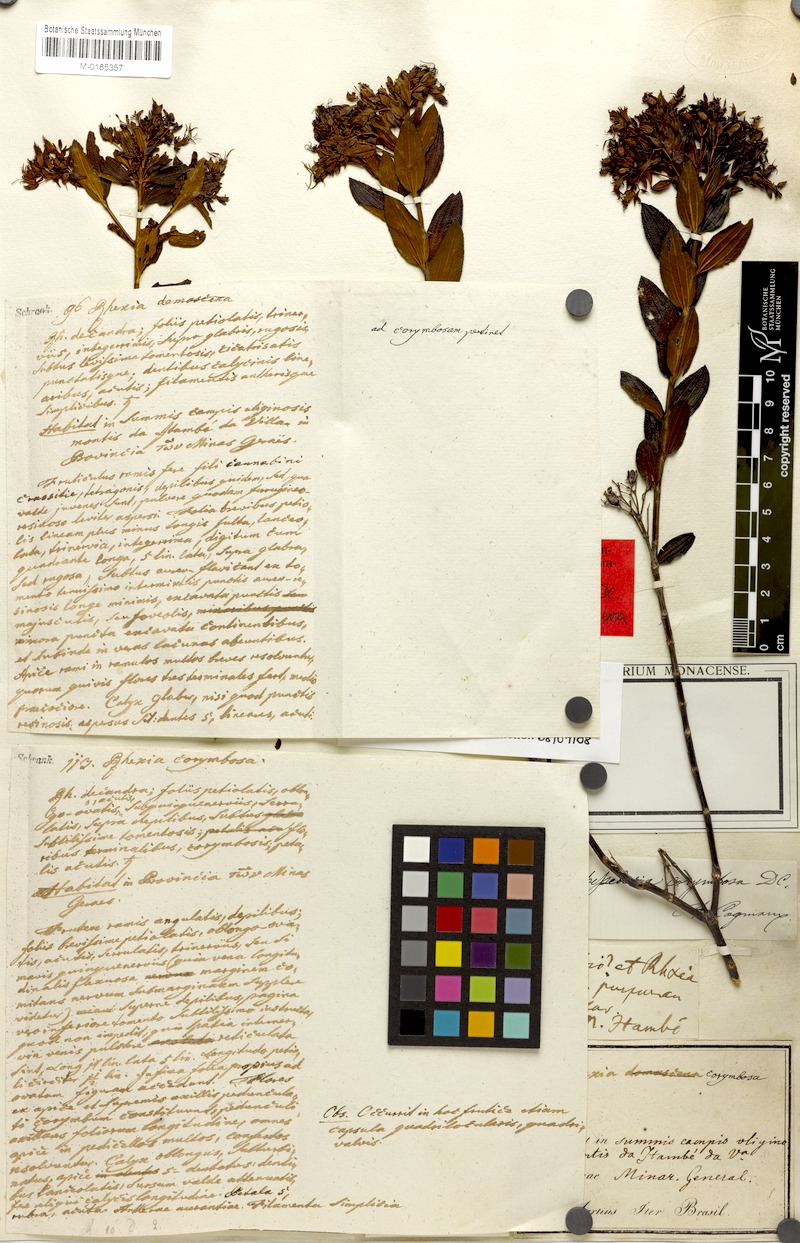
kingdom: Plantae
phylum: Tracheophyta
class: Magnoliopsida
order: Myrtales
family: Melastomataceae
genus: Cambessedesia
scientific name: Cambessedesia corymbosa
